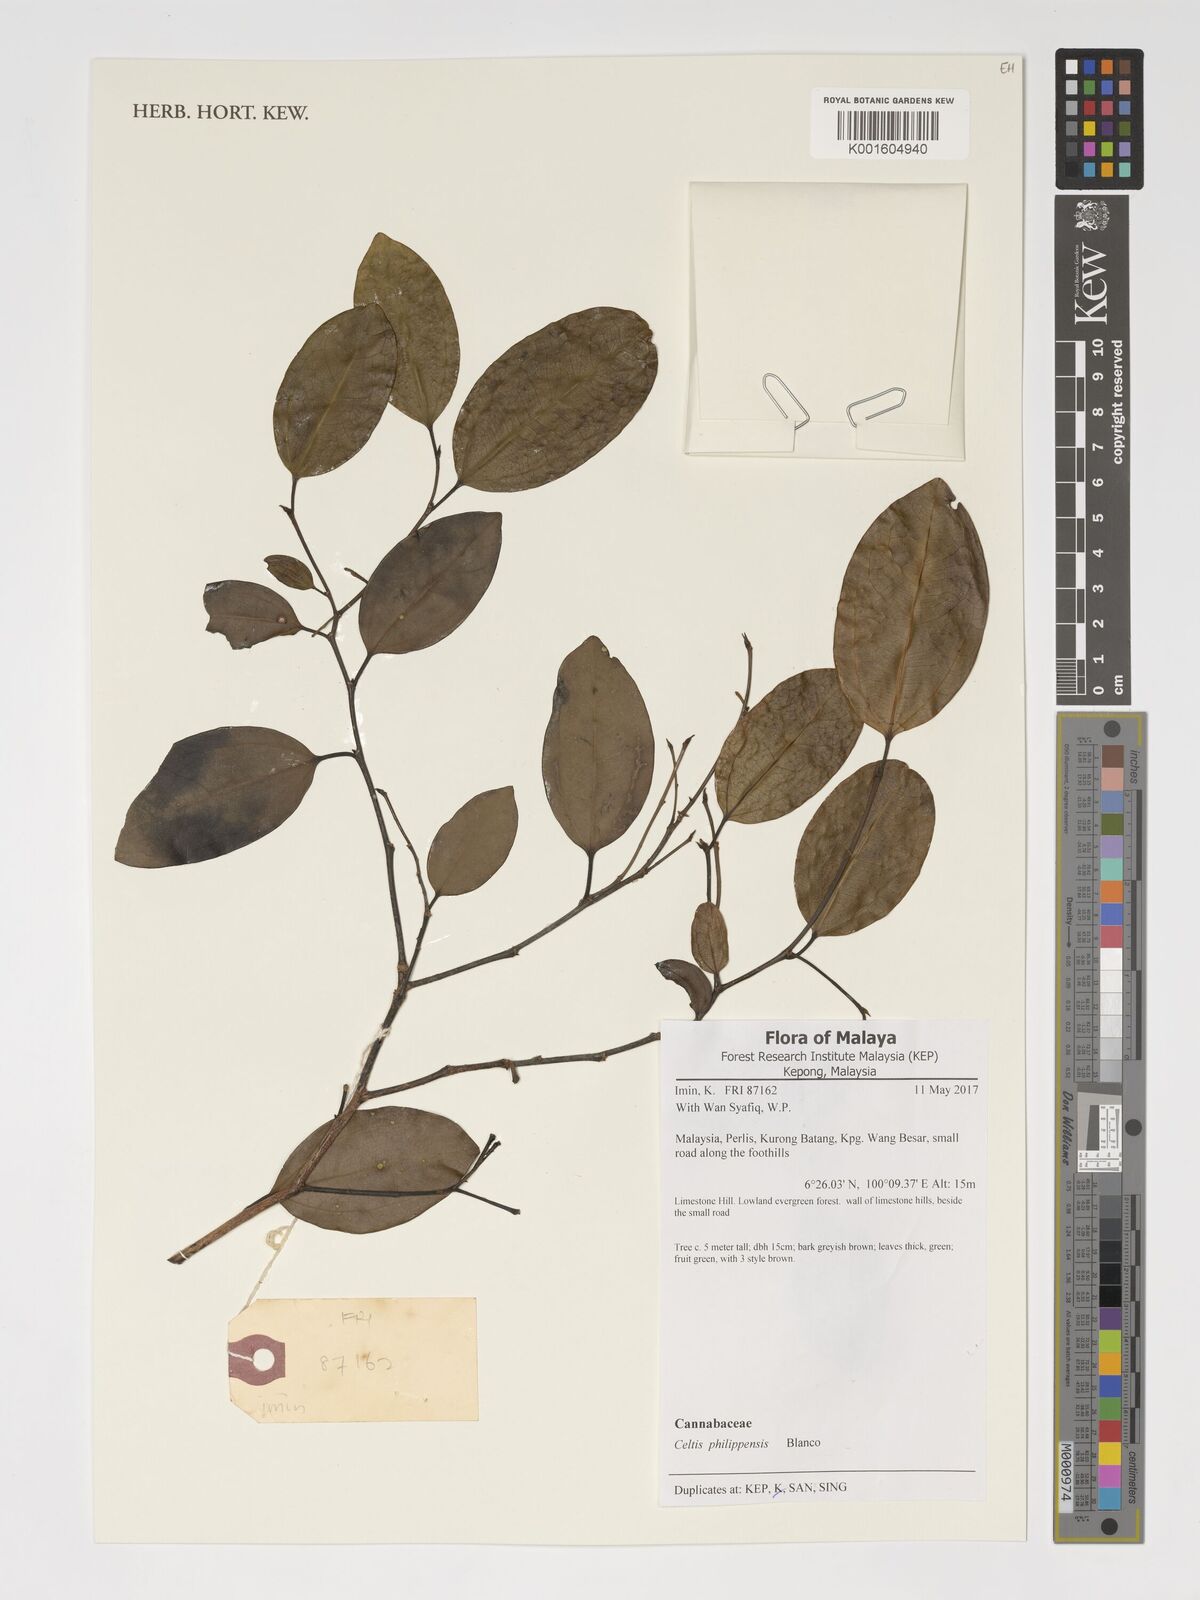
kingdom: Plantae
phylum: Tracheophyta
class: Magnoliopsida
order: Rosales
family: Cannabaceae
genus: Celtis
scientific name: Celtis philippensis
